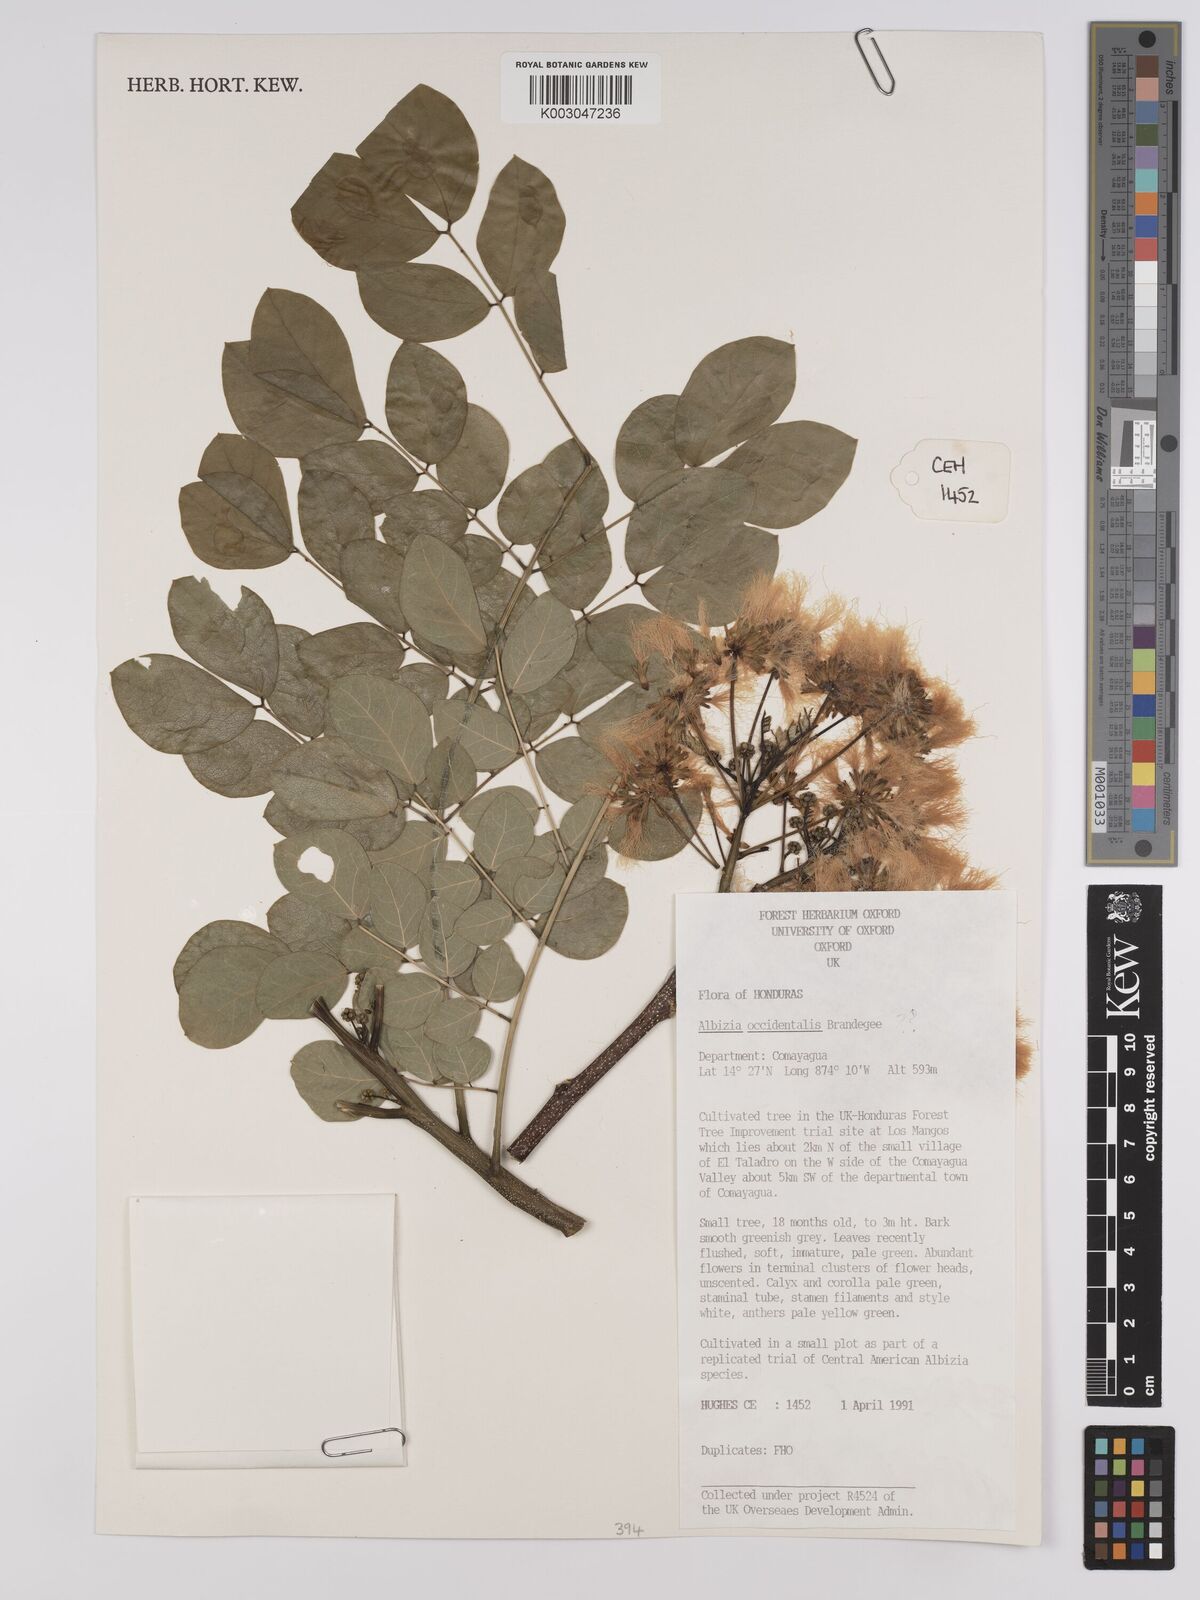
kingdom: Plantae
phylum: Tracheophyta
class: Magnoliopsida
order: Fabales
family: Fabaceae
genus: Albizia
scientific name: Albizia occidentalis
